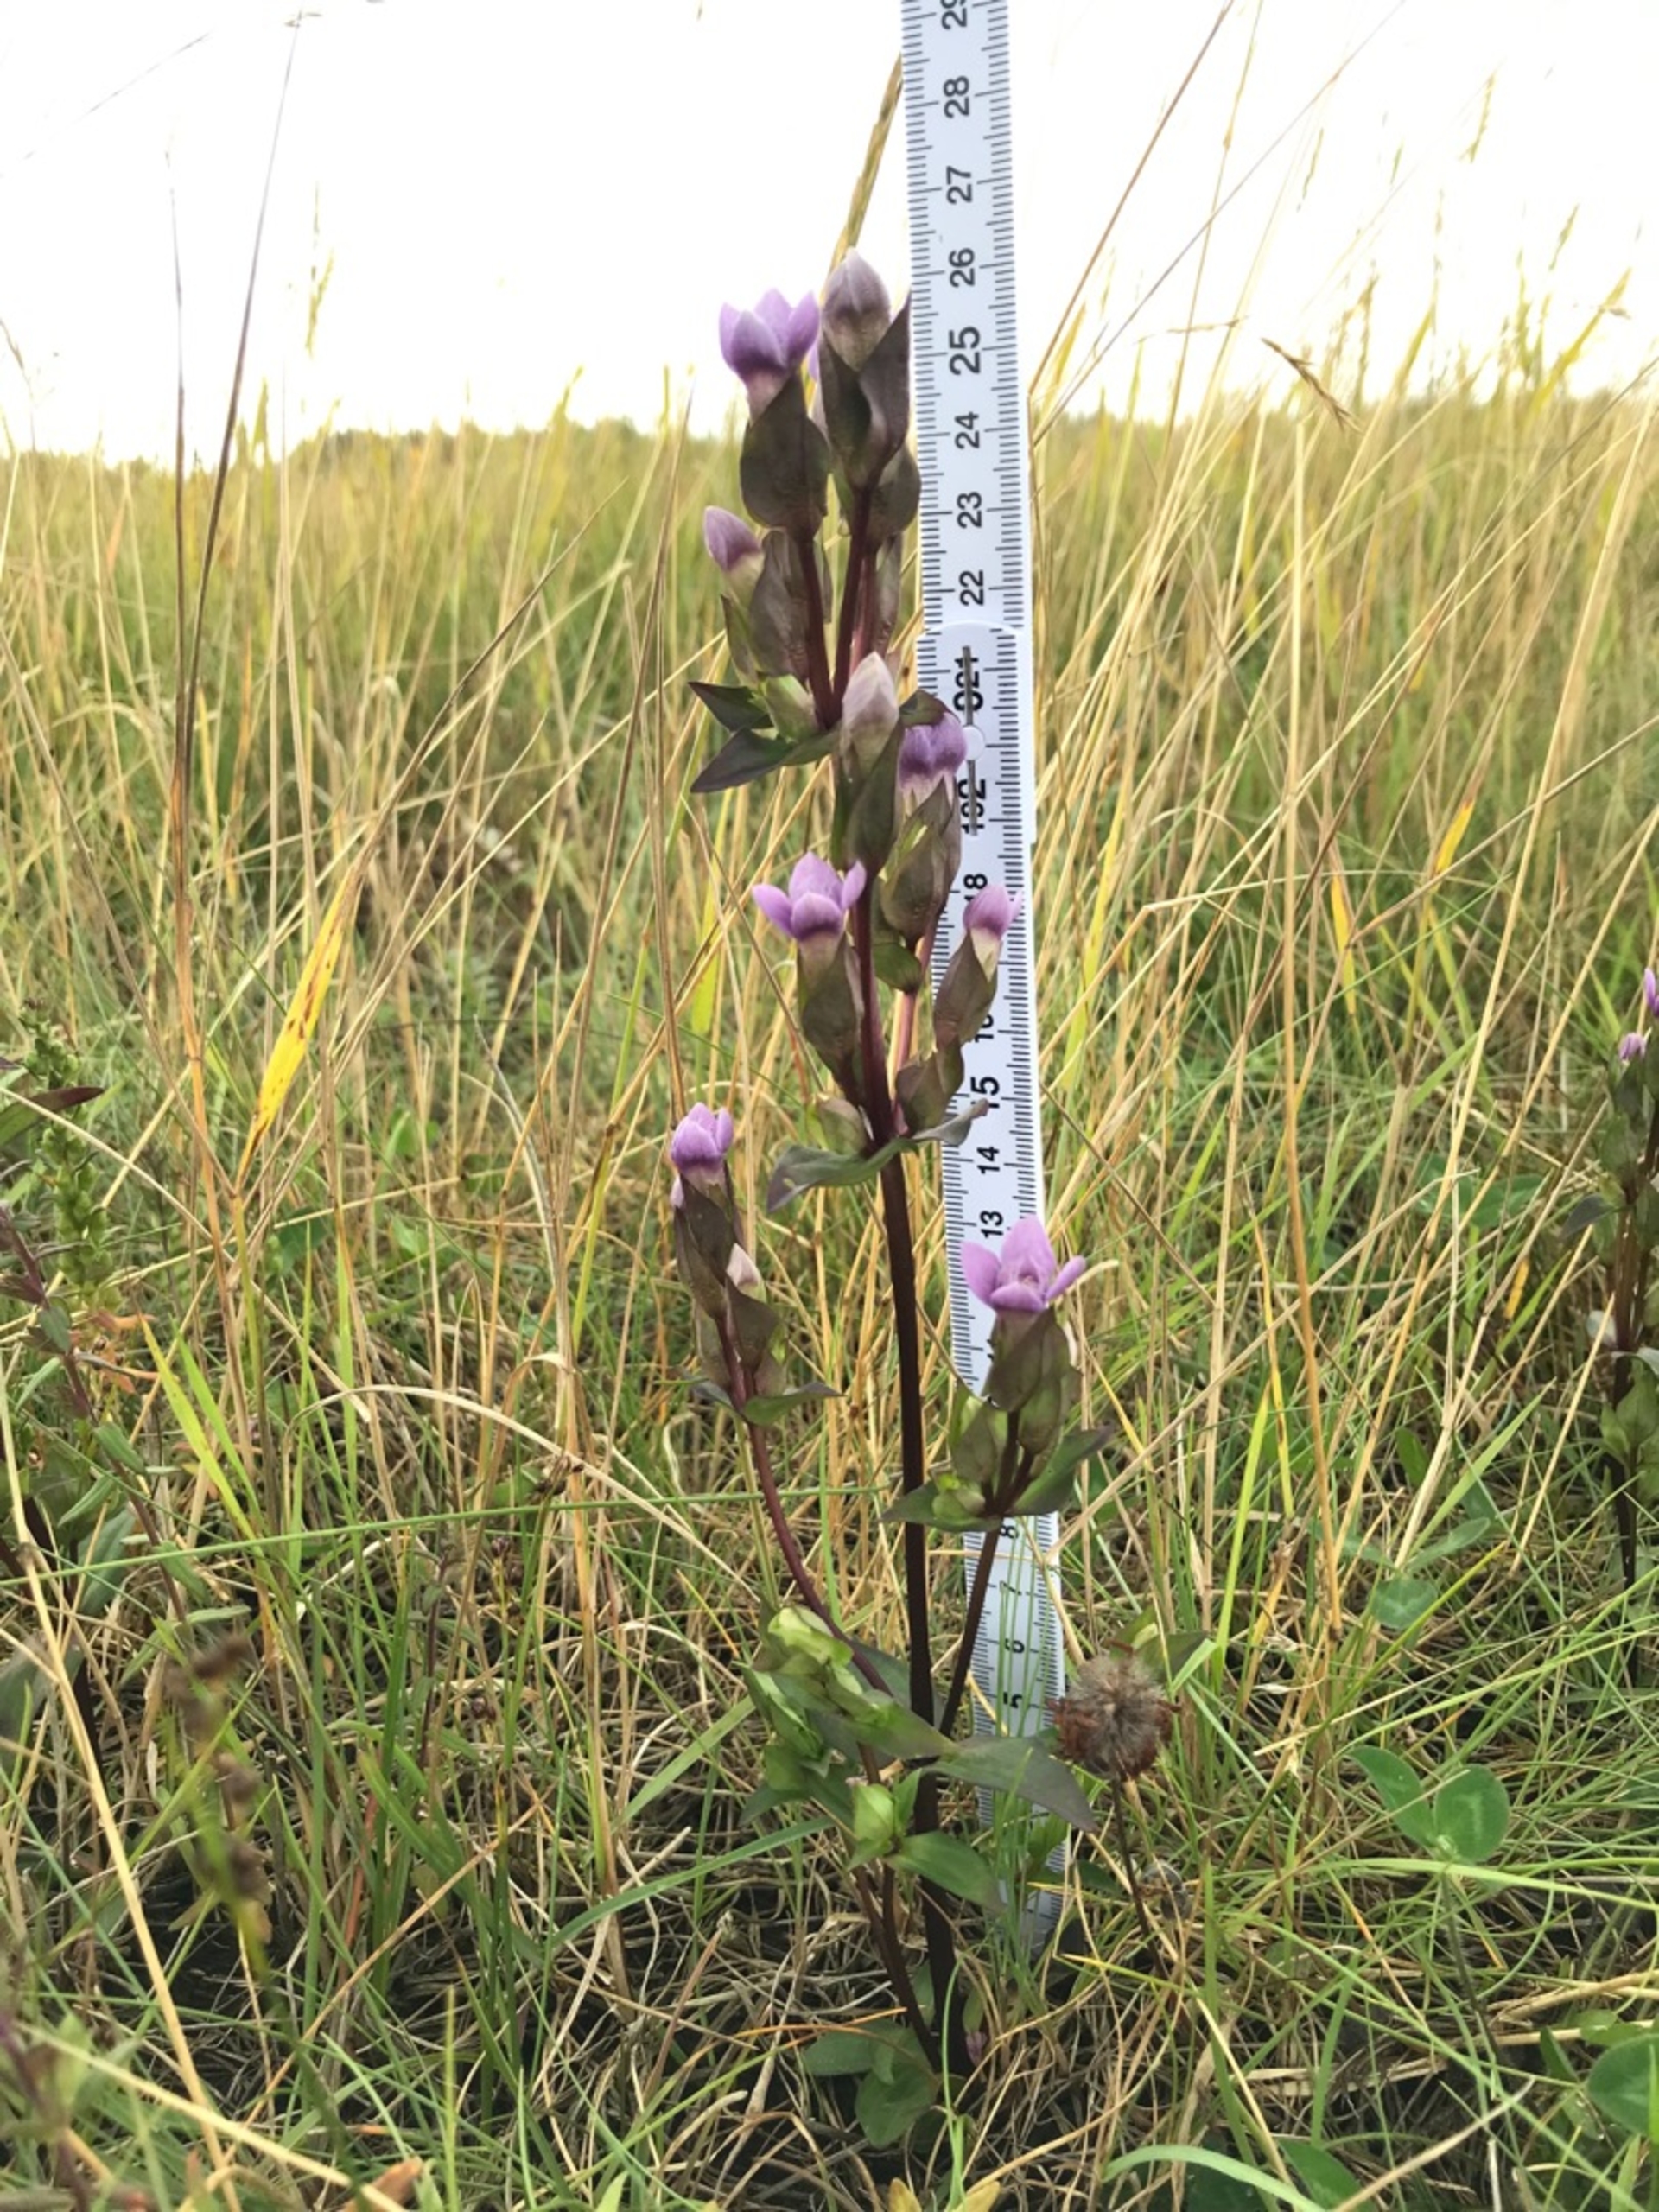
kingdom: Plantae
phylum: Tracheophyta
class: Magnoliopsida
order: Gentianales
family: Gentianaceae
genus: Gentianella
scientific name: Gentianella campestris
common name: Baltisk ensian
